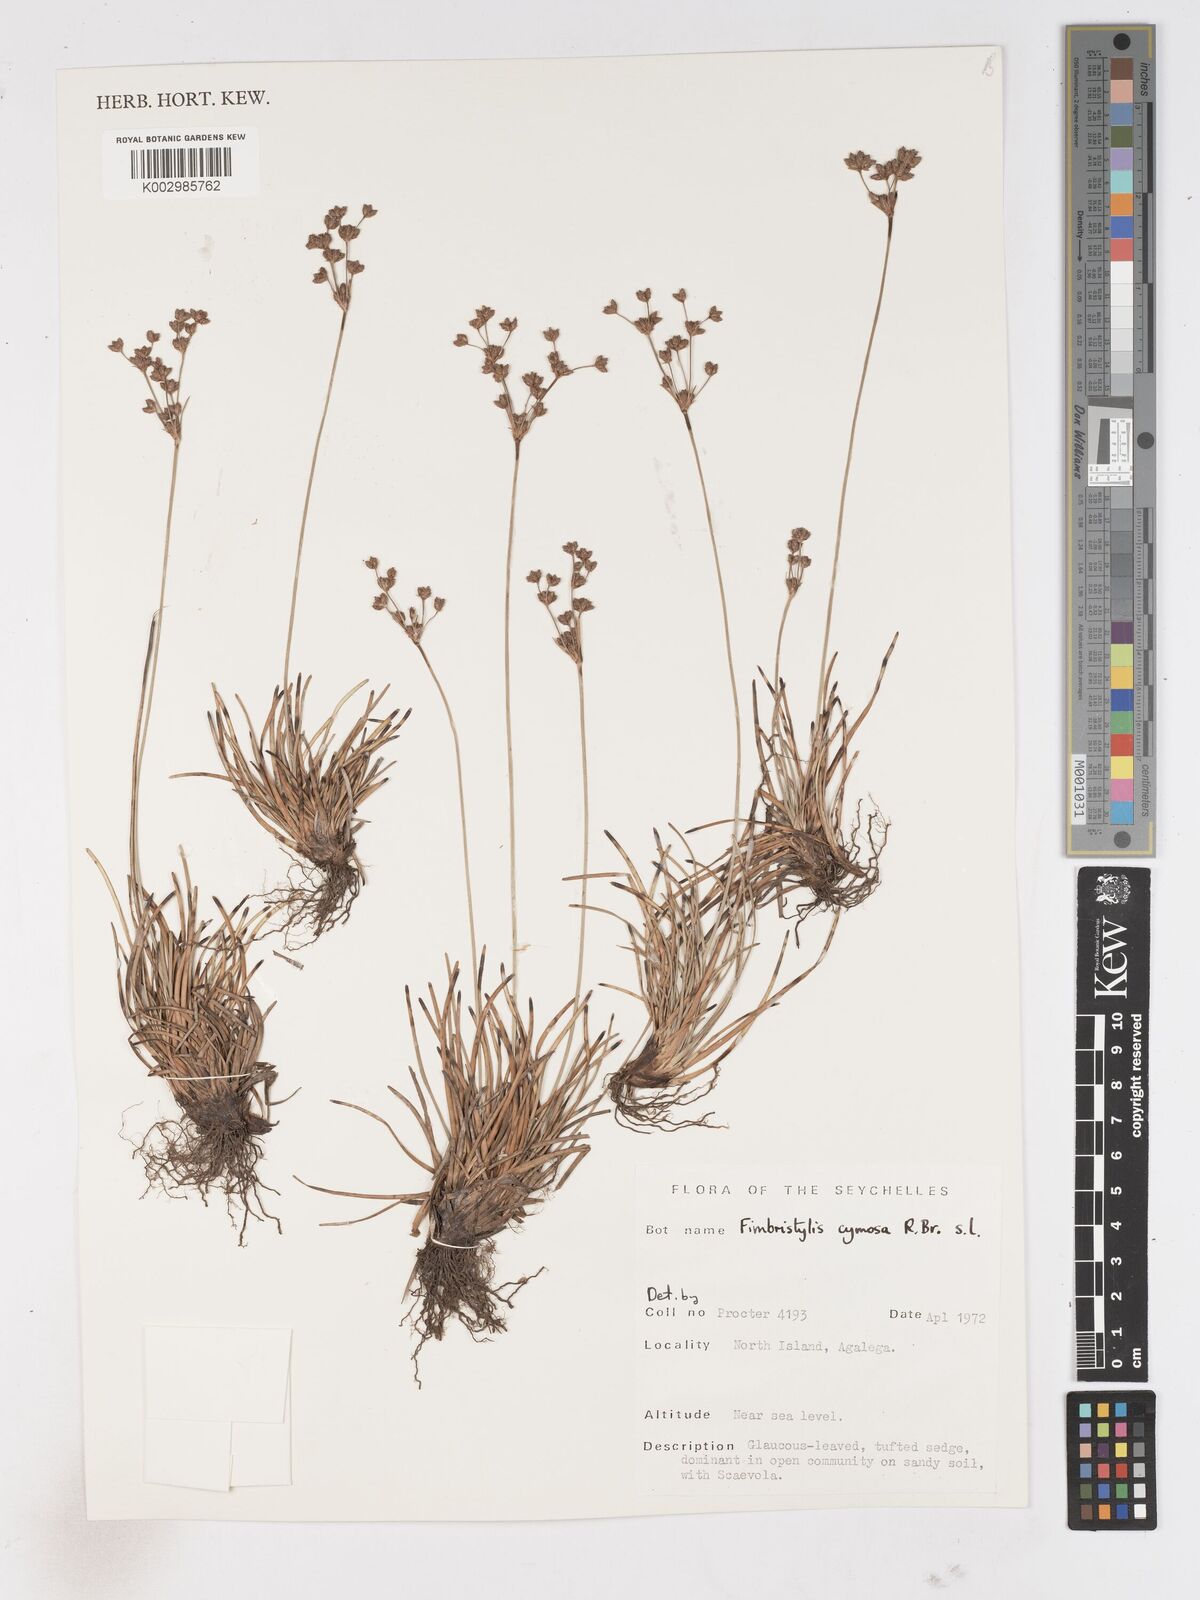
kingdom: Plantae
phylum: Tracheophyta
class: Liliopsida
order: Poales
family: Cyperaceae
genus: Fimbristylis
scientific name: Fimbristylis cymosa
